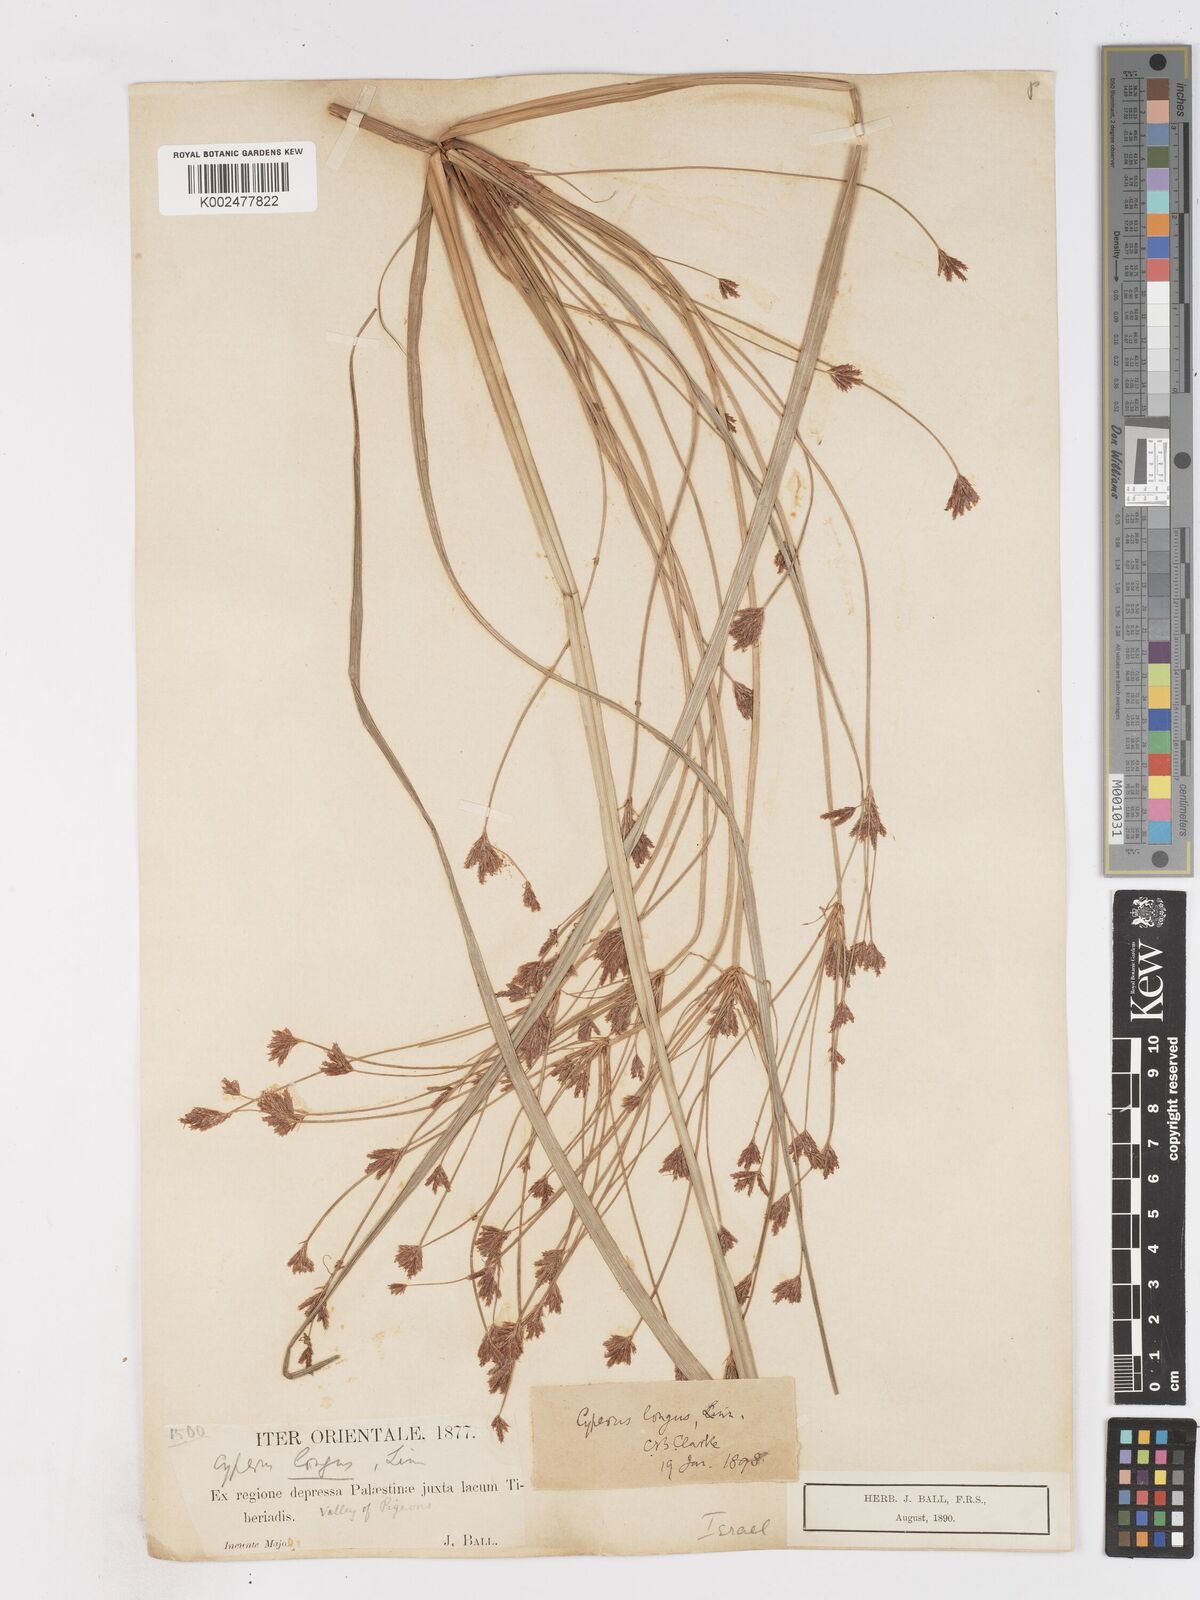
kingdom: Plantae
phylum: Tracheophyta
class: Liliopsida
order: Poales
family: Cyperaceae
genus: Cyperus
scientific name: Cyperus longus
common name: Galingale
